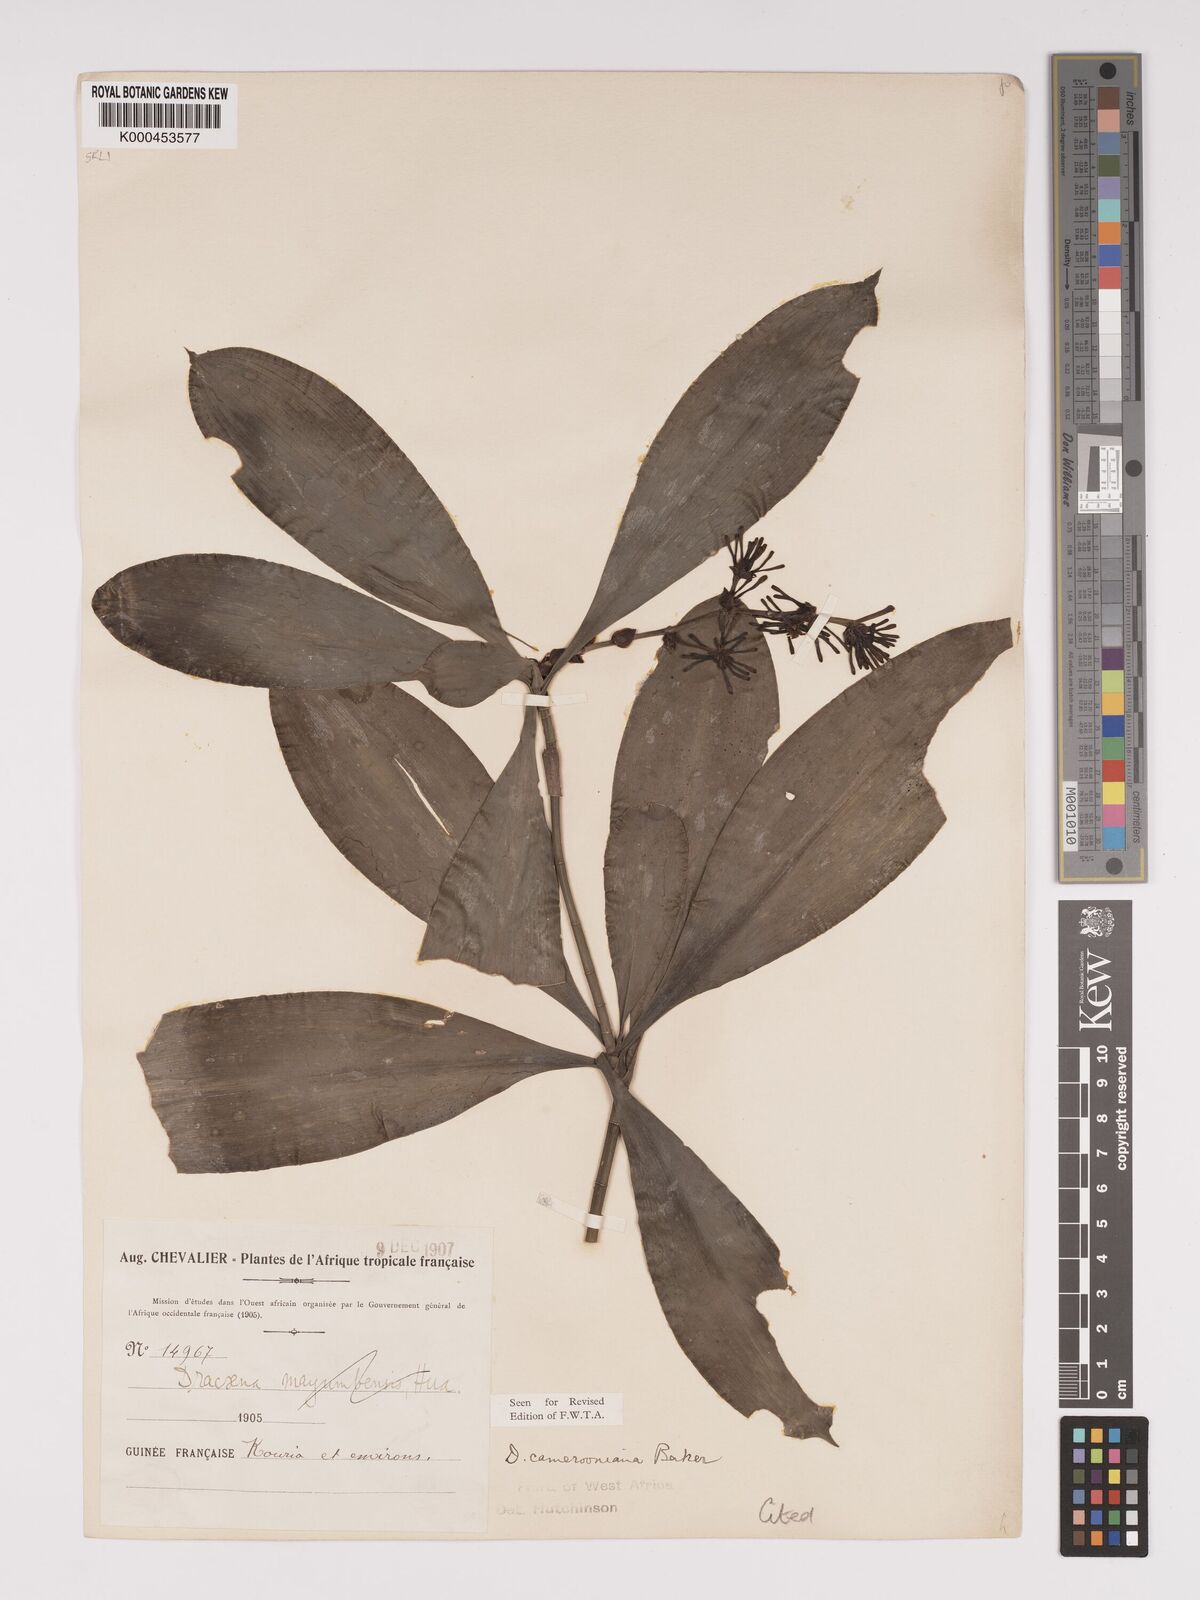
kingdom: Plantae
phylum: Tracheophyta
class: Liliopsida
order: Asparagales
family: Asparagaceae
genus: Dracaena
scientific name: Dracaena camerooniana
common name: Dragon tree
